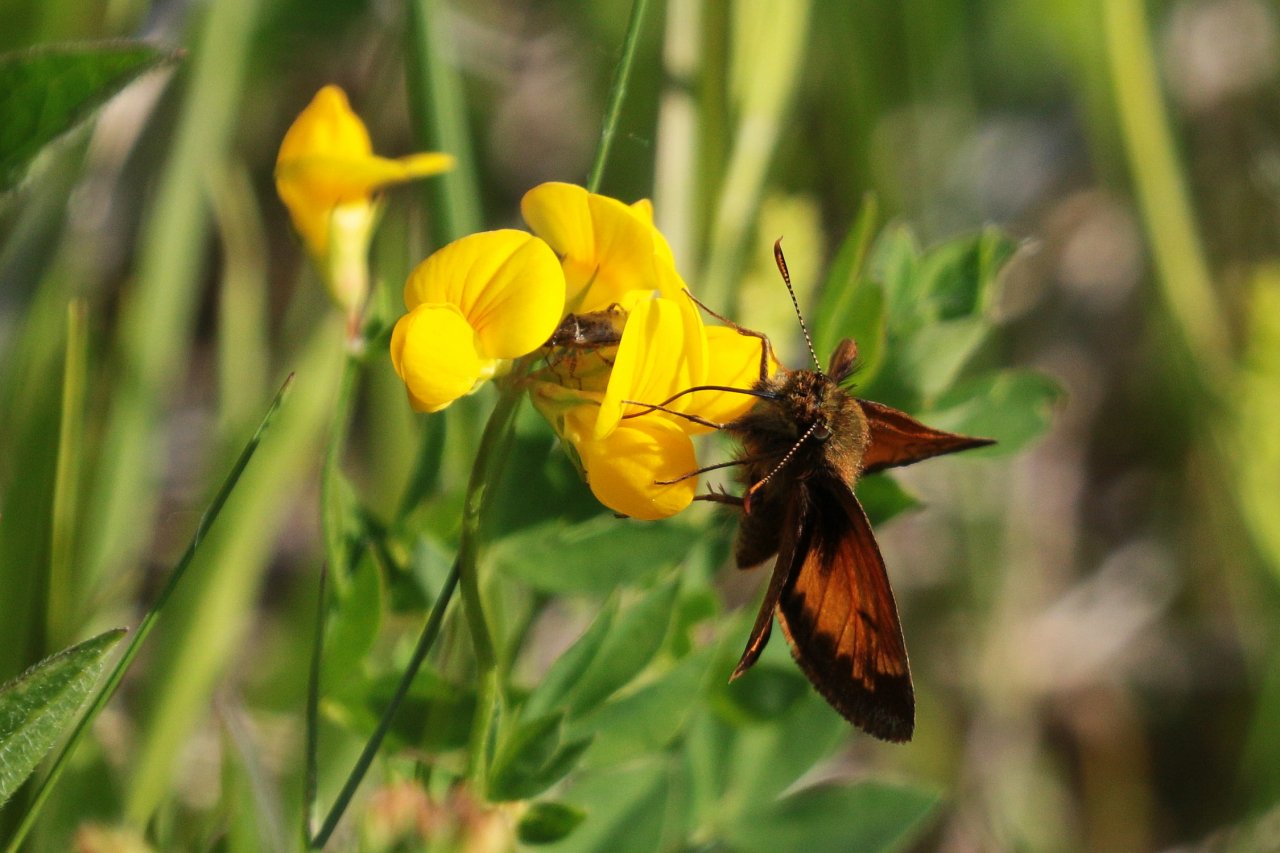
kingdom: Animalia
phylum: Arthropoda
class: Insecta
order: Lepidoptera
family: Hesperiidae
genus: Lon
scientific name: Lon hobomok
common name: Hobomok Skipper
